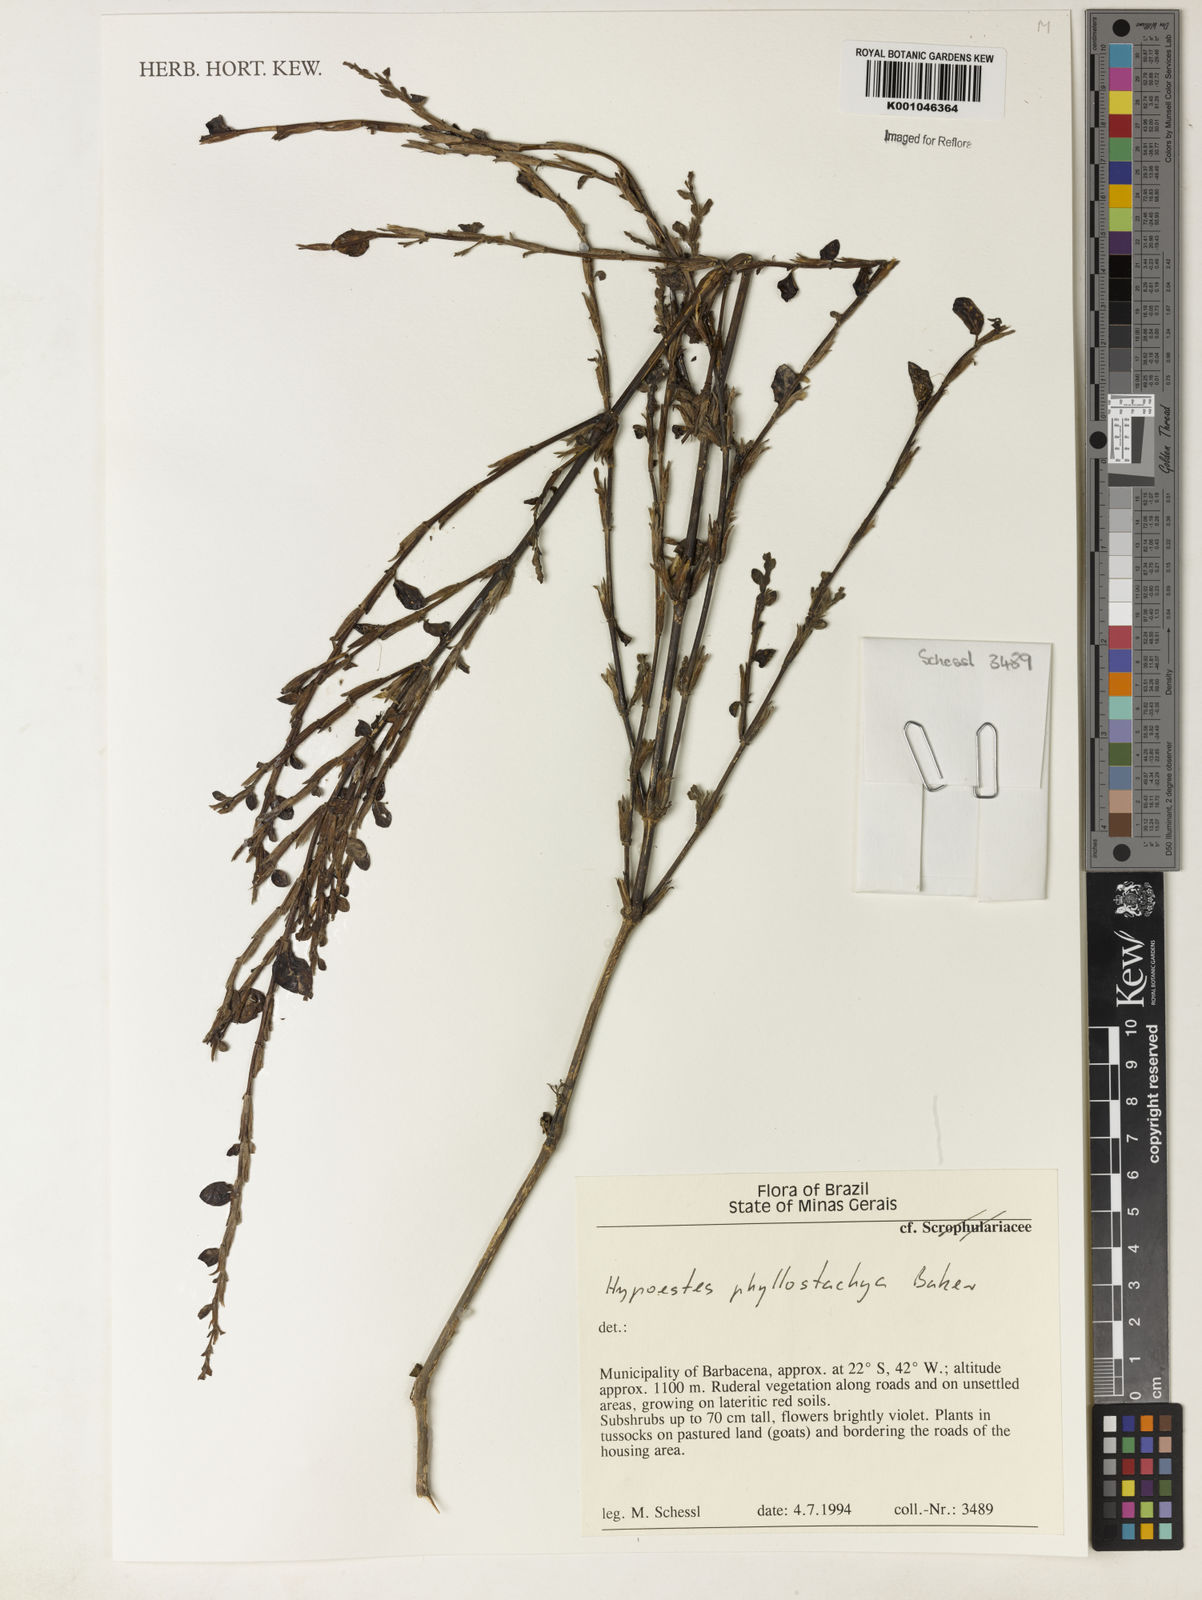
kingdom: Plantae
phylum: Tracheophyta
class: Magnoliopsida
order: Lamiales
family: Acanthaceae
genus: Hypoestes
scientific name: Hypoestes phyllostachya
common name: Polkadot-plant
